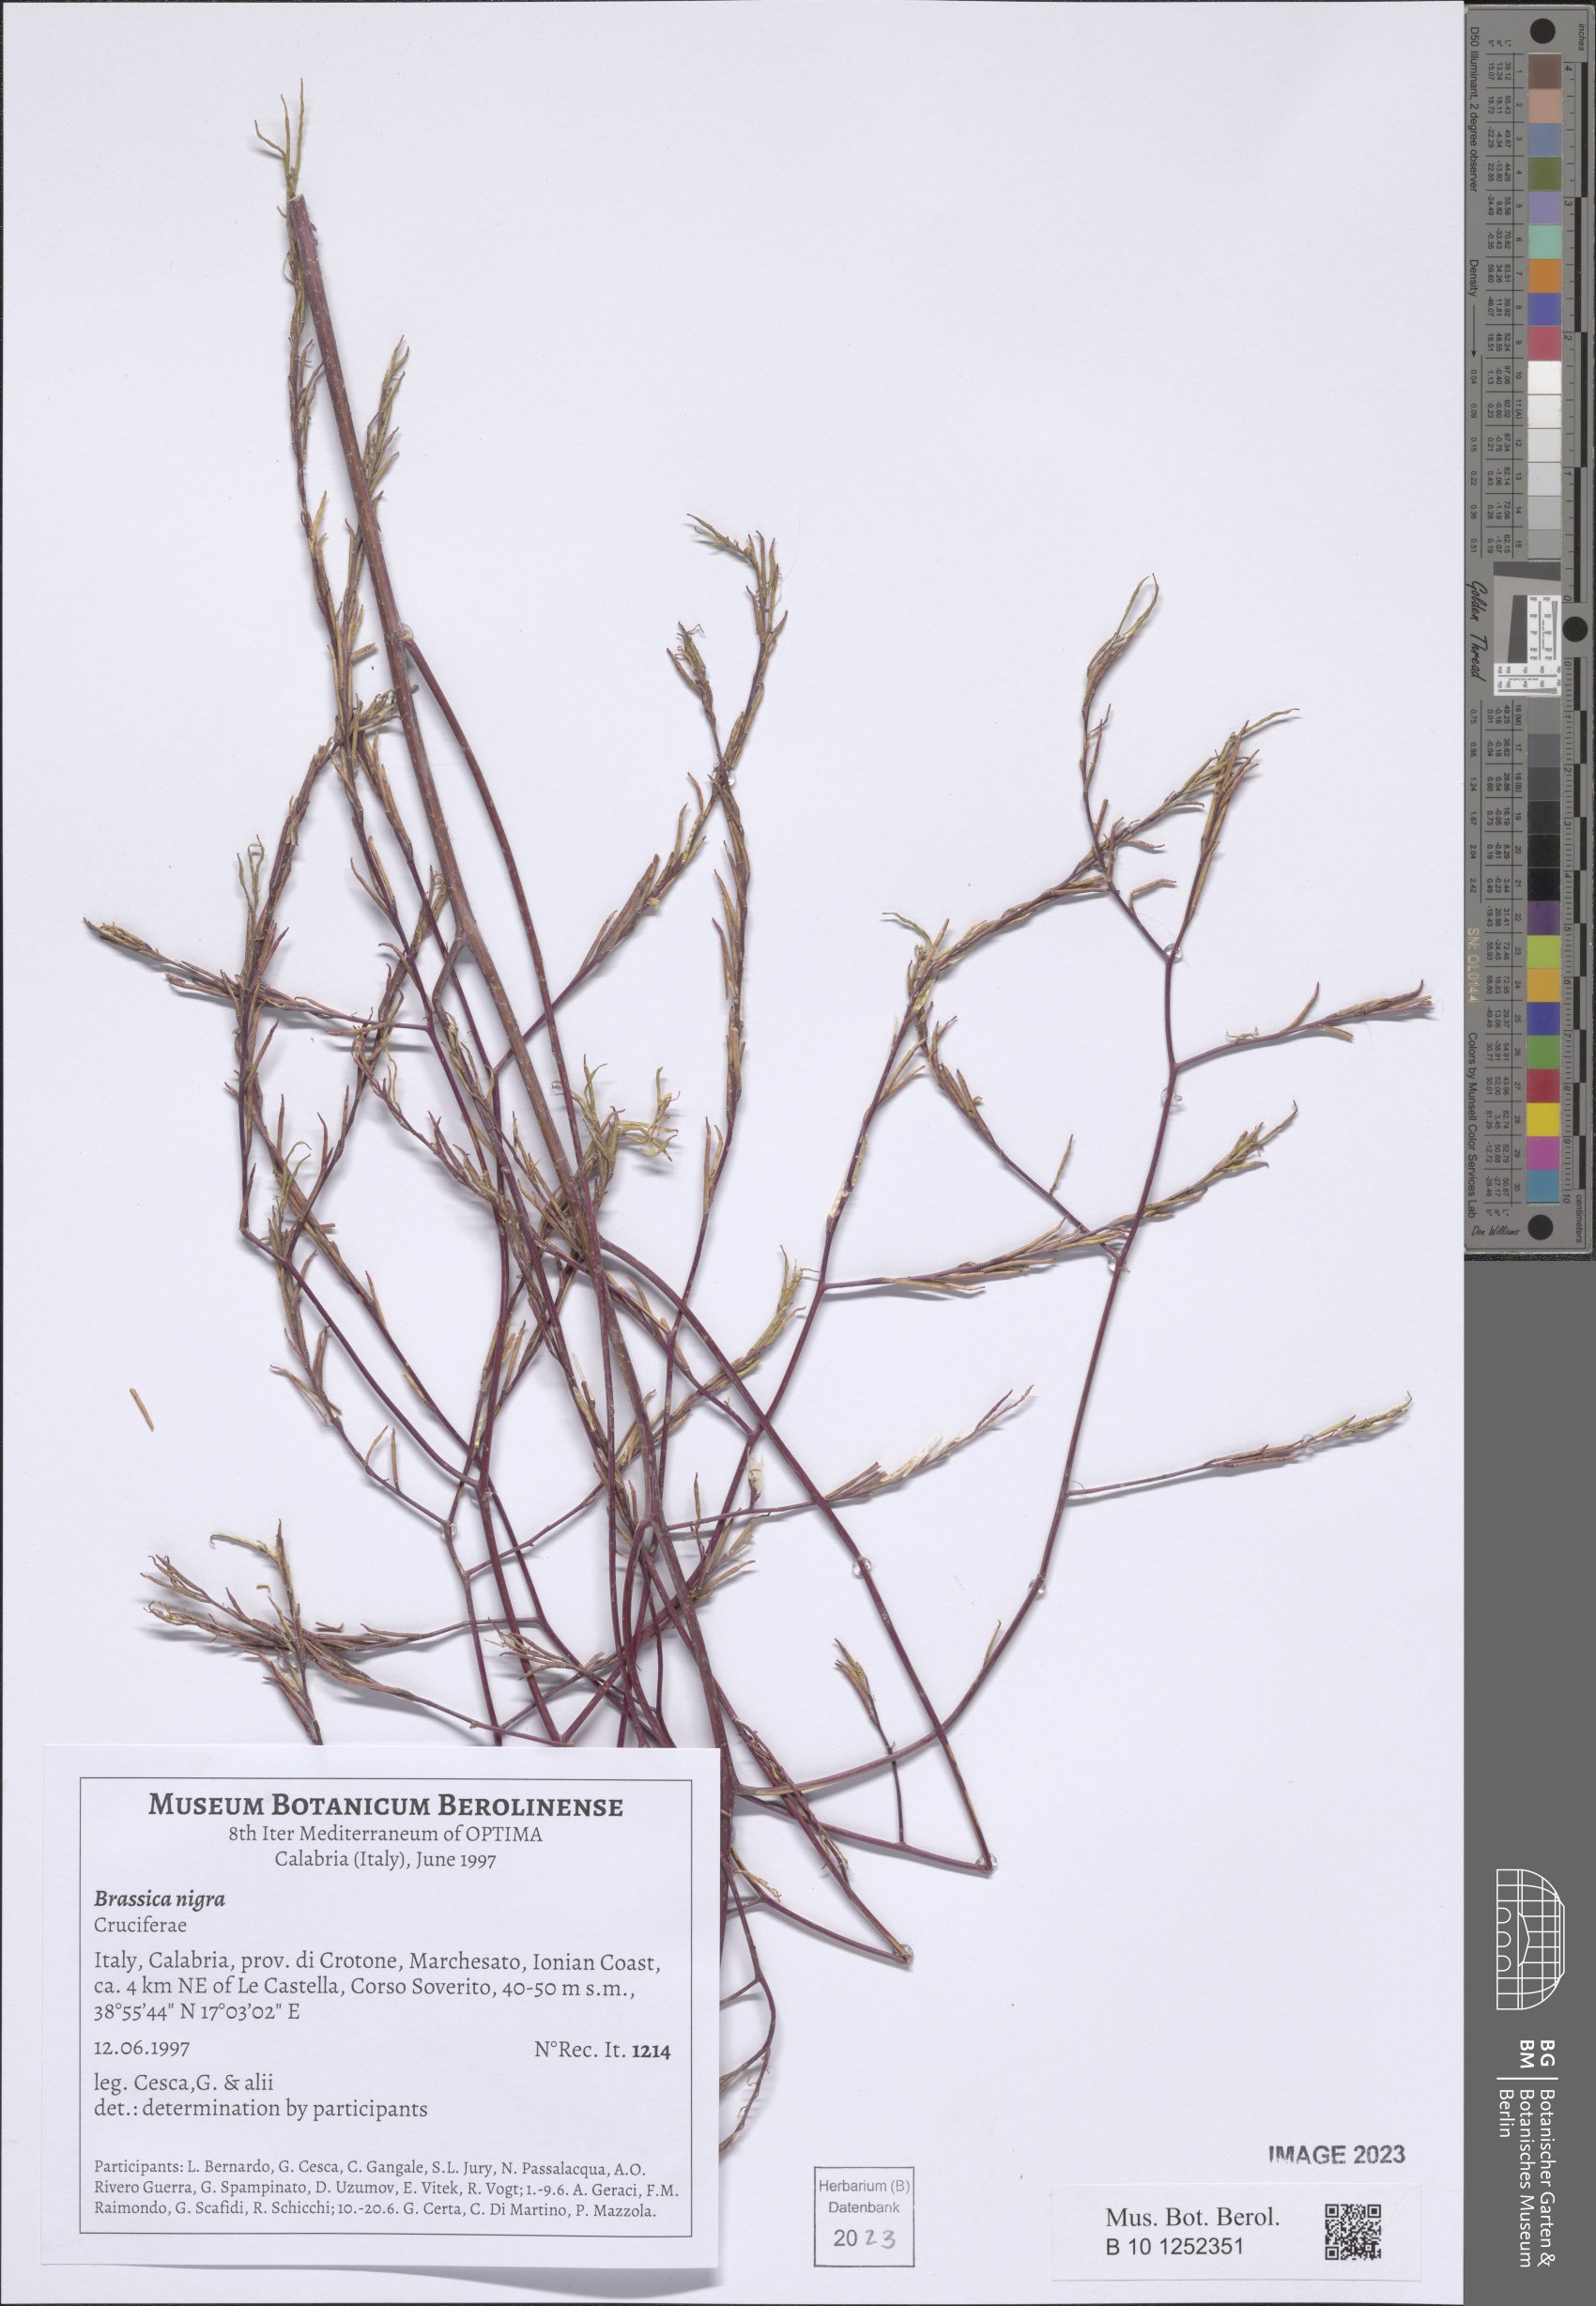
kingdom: Plantae
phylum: Tracheophyta
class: Magnoliopsida
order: Brassicales
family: Brassicaceae
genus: Brassica
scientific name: Brassica nigra
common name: Black mustard
